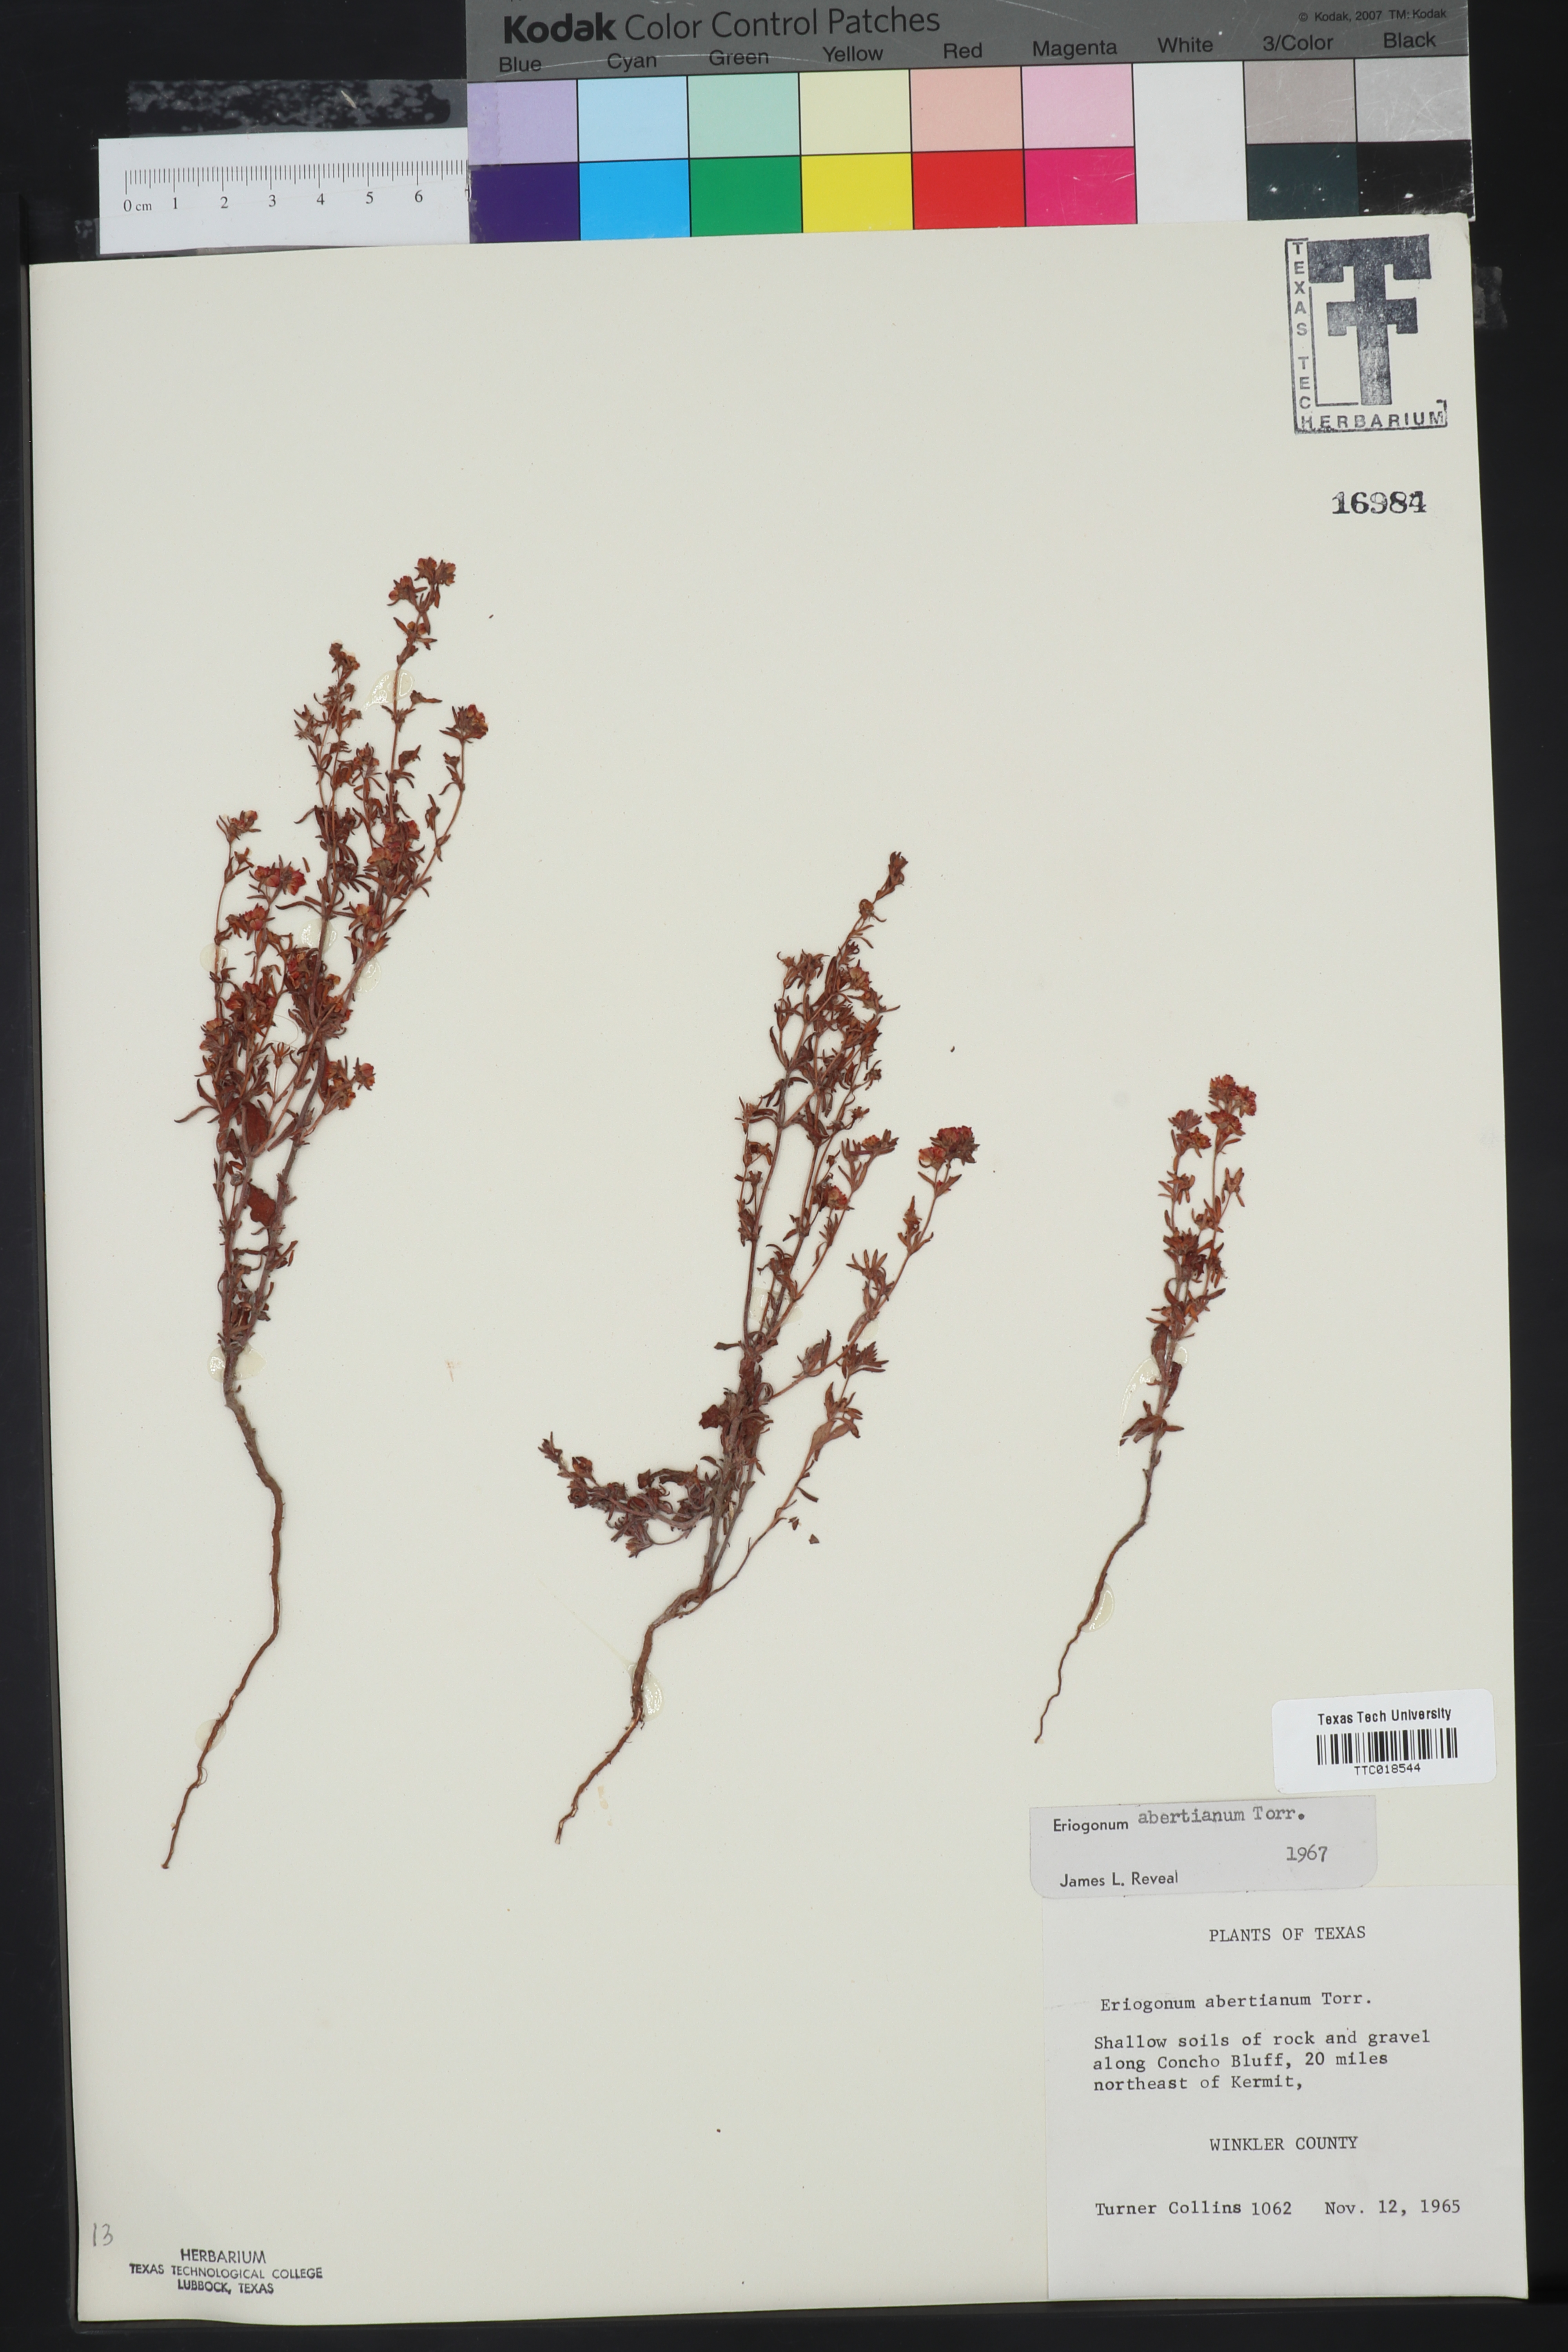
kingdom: Plantae
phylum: Tracheophyta
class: Magnoliopsida
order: Caryophyllales
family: Polygonaceae
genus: Eriogonum
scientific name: Eriogonum abertianum
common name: Abert's wild buckwheat
